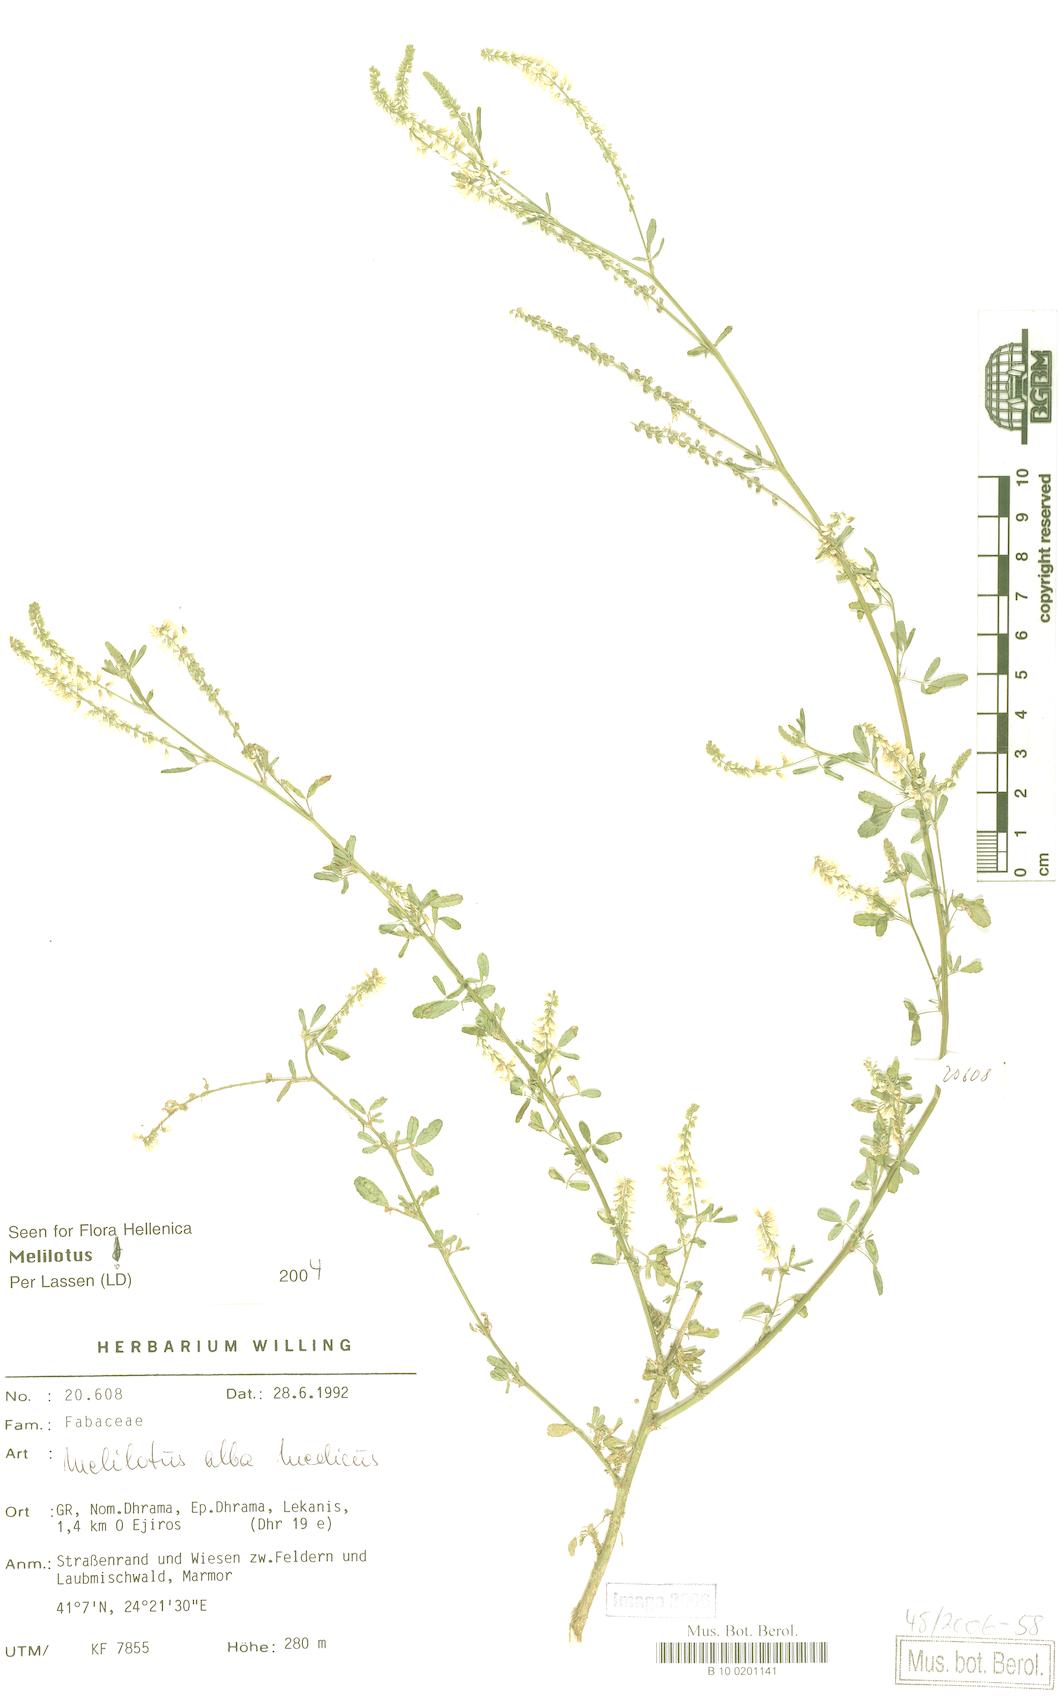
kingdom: Plantae
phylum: Tracheophyta
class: Magnoliopsida
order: Fabales
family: Fabaceae
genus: Melilotus
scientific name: Melilotus albus
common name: White melilot
